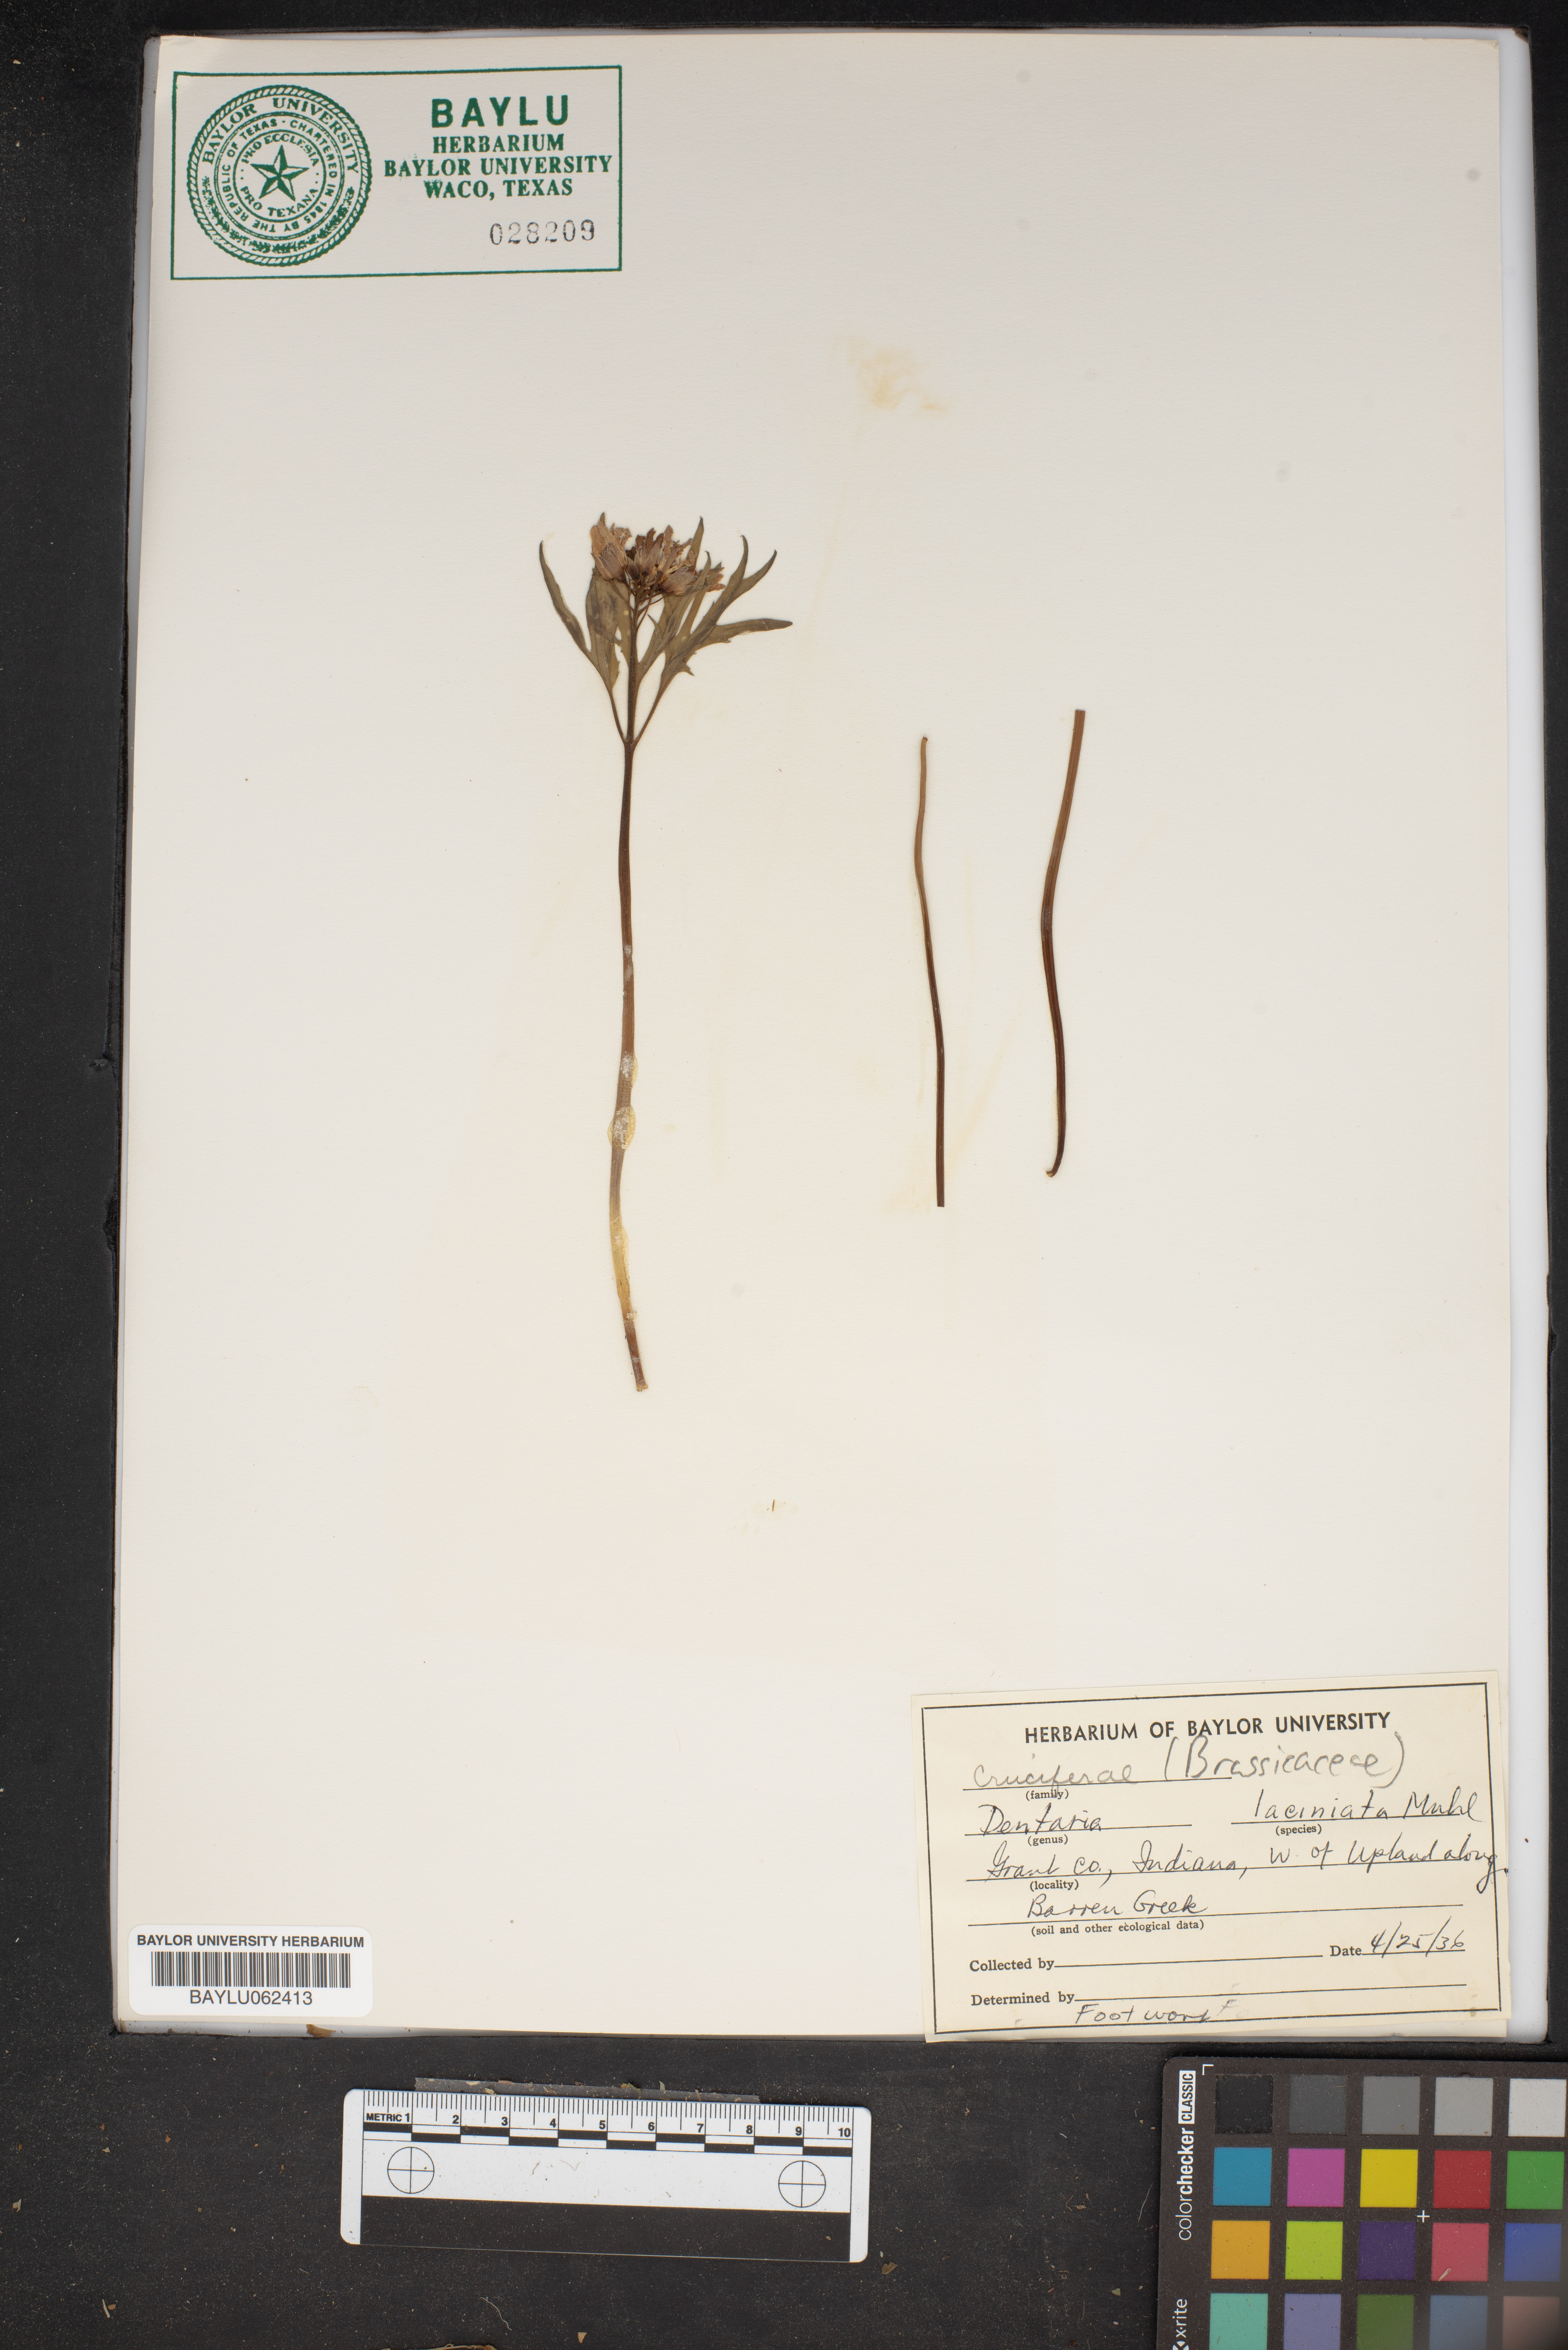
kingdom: Plantae
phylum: Tracheophyta
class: Magnoliopsida
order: Brassicales
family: Brassicaceae
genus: Cardamine
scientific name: Cardamine concatenata
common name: Cut-leaf toothcup
